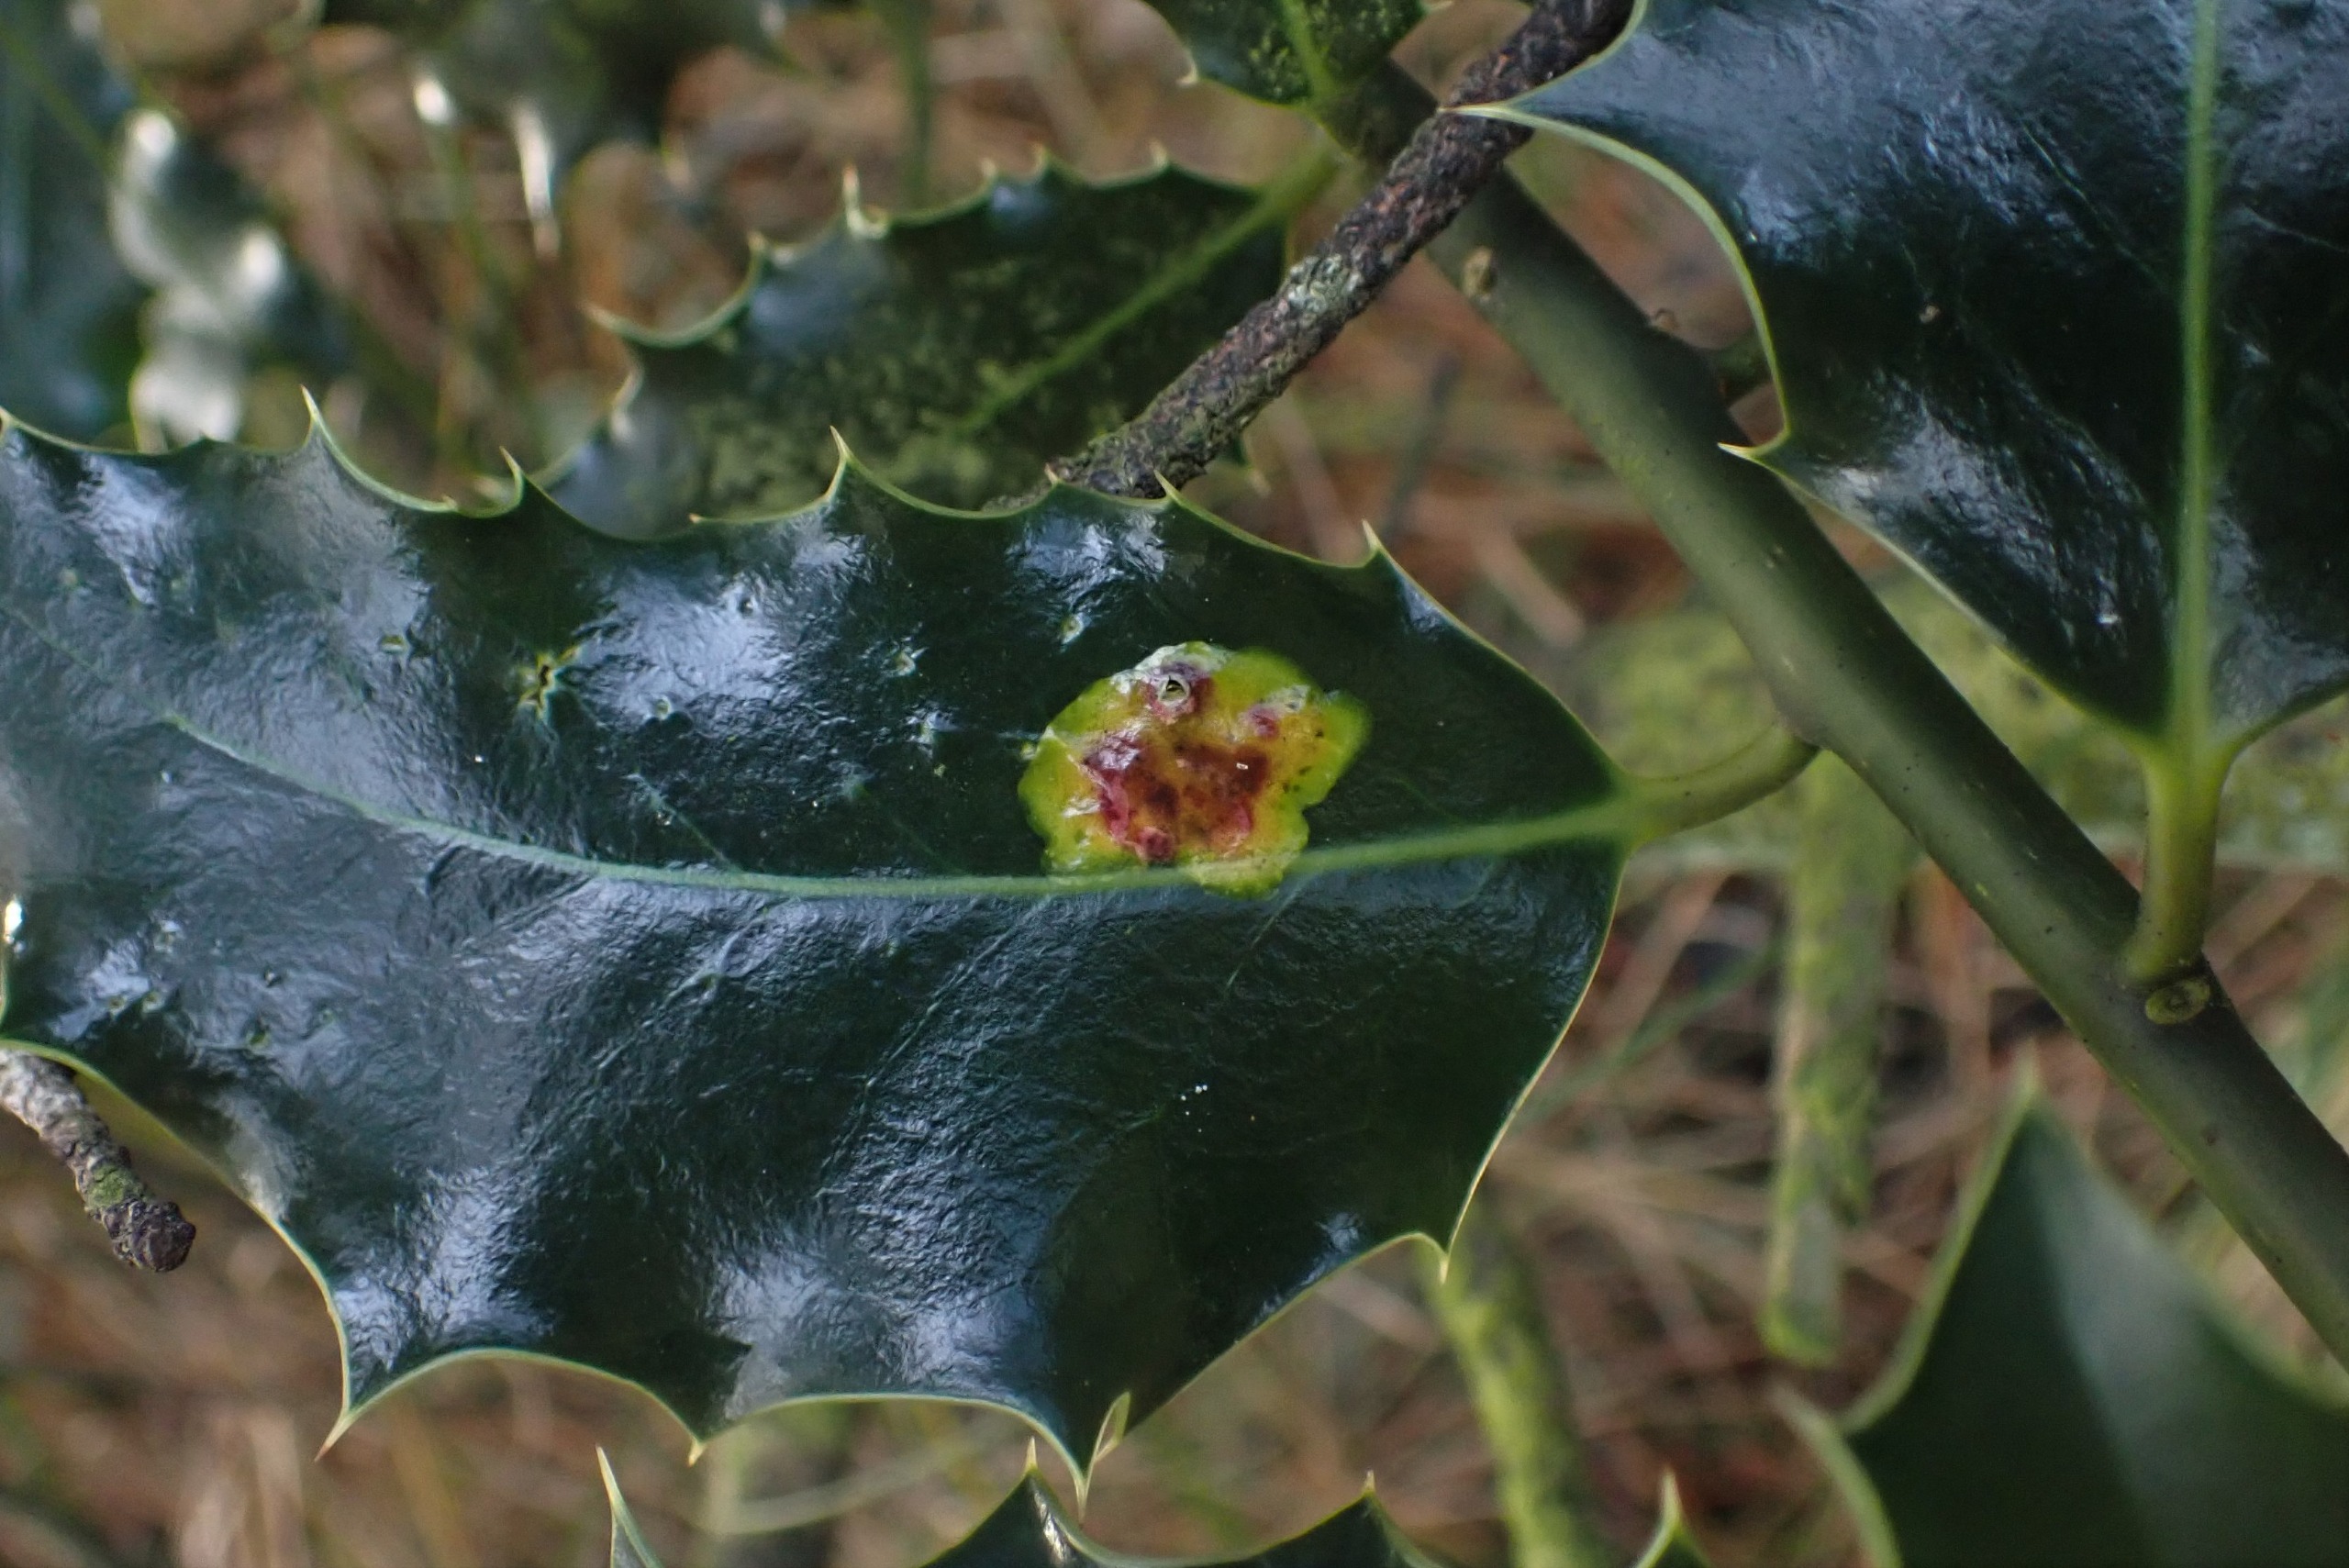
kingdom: Animalia
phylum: Arthropoda
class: Insecta
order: Diptera
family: Agromyzidae
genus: Phytomyza
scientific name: Phytomyza ilicis
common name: Kristtornminérflue
